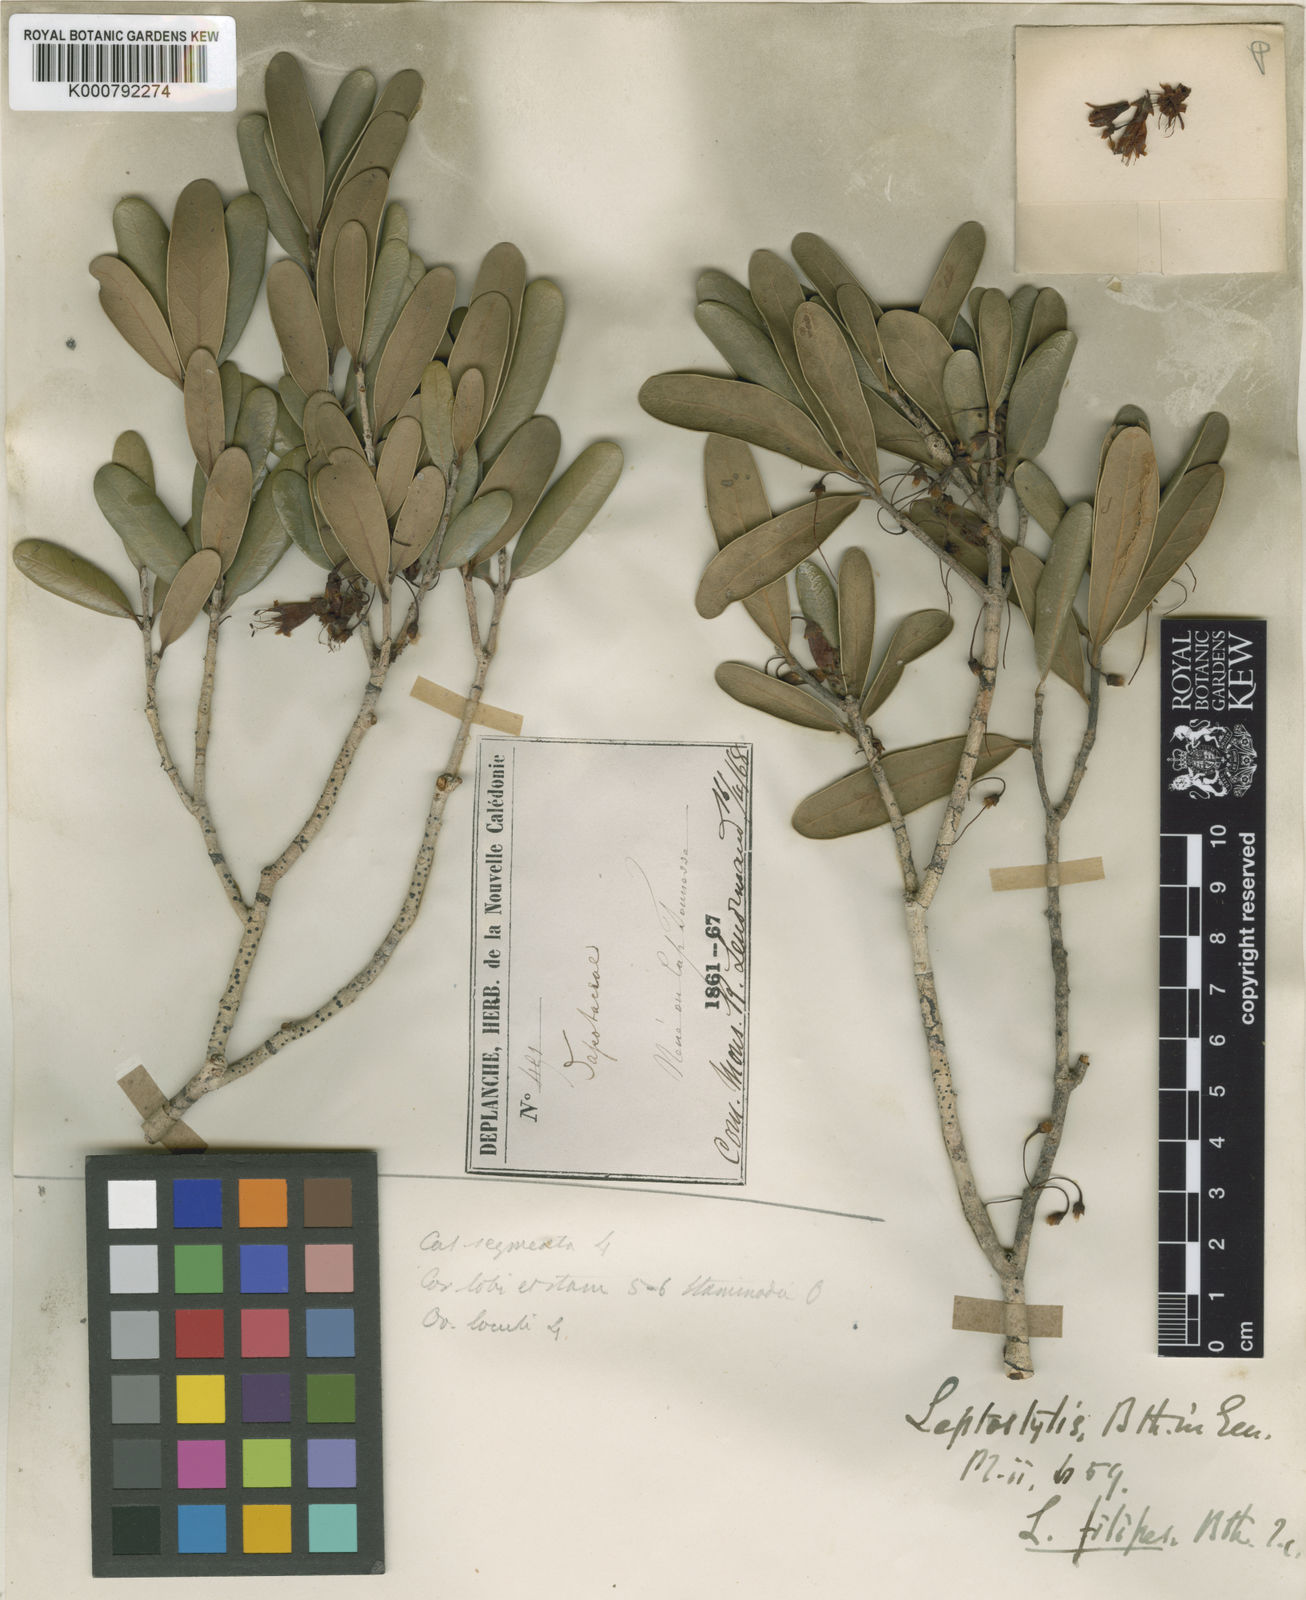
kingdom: Plantae
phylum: Tracheophyta
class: Magnoliopsida
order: Ericales
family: Sapotaceae
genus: Pycnandra
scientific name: Pycnandra filipes
